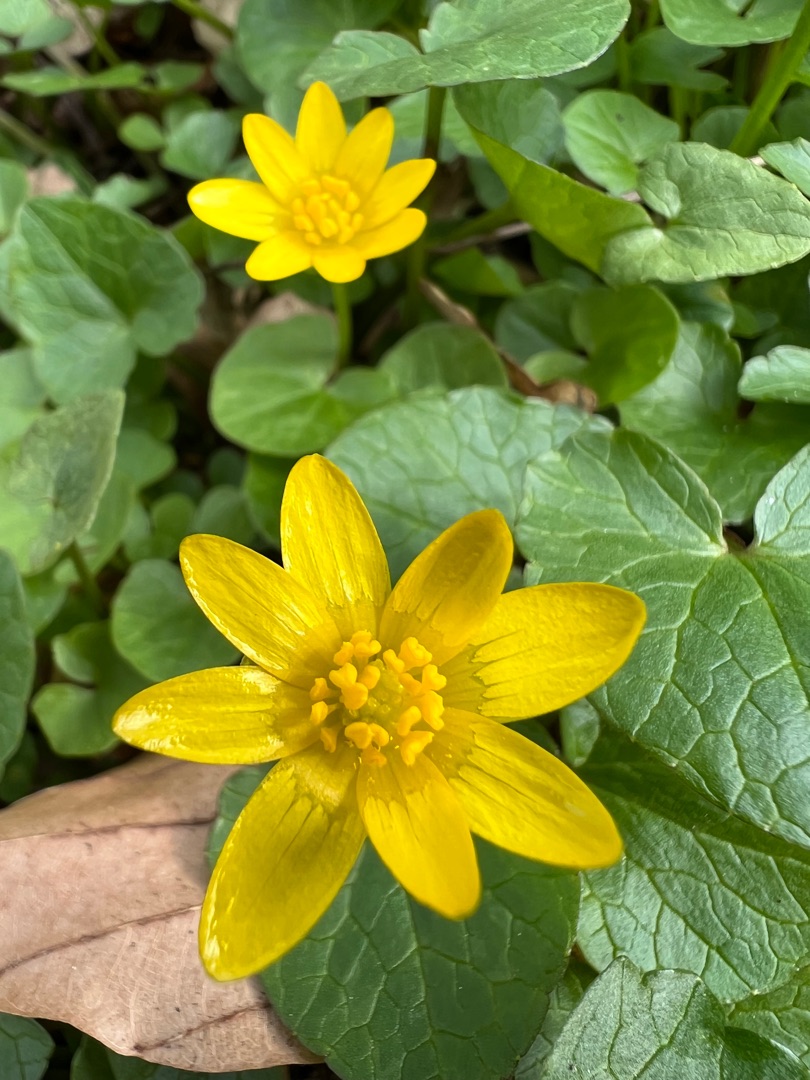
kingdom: Plantae
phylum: Tracheophyta
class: Magnoliopsida
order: Ranunculales
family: Ranunculaceae
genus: Ficaria
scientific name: Ficaria verna
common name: Vorterod
